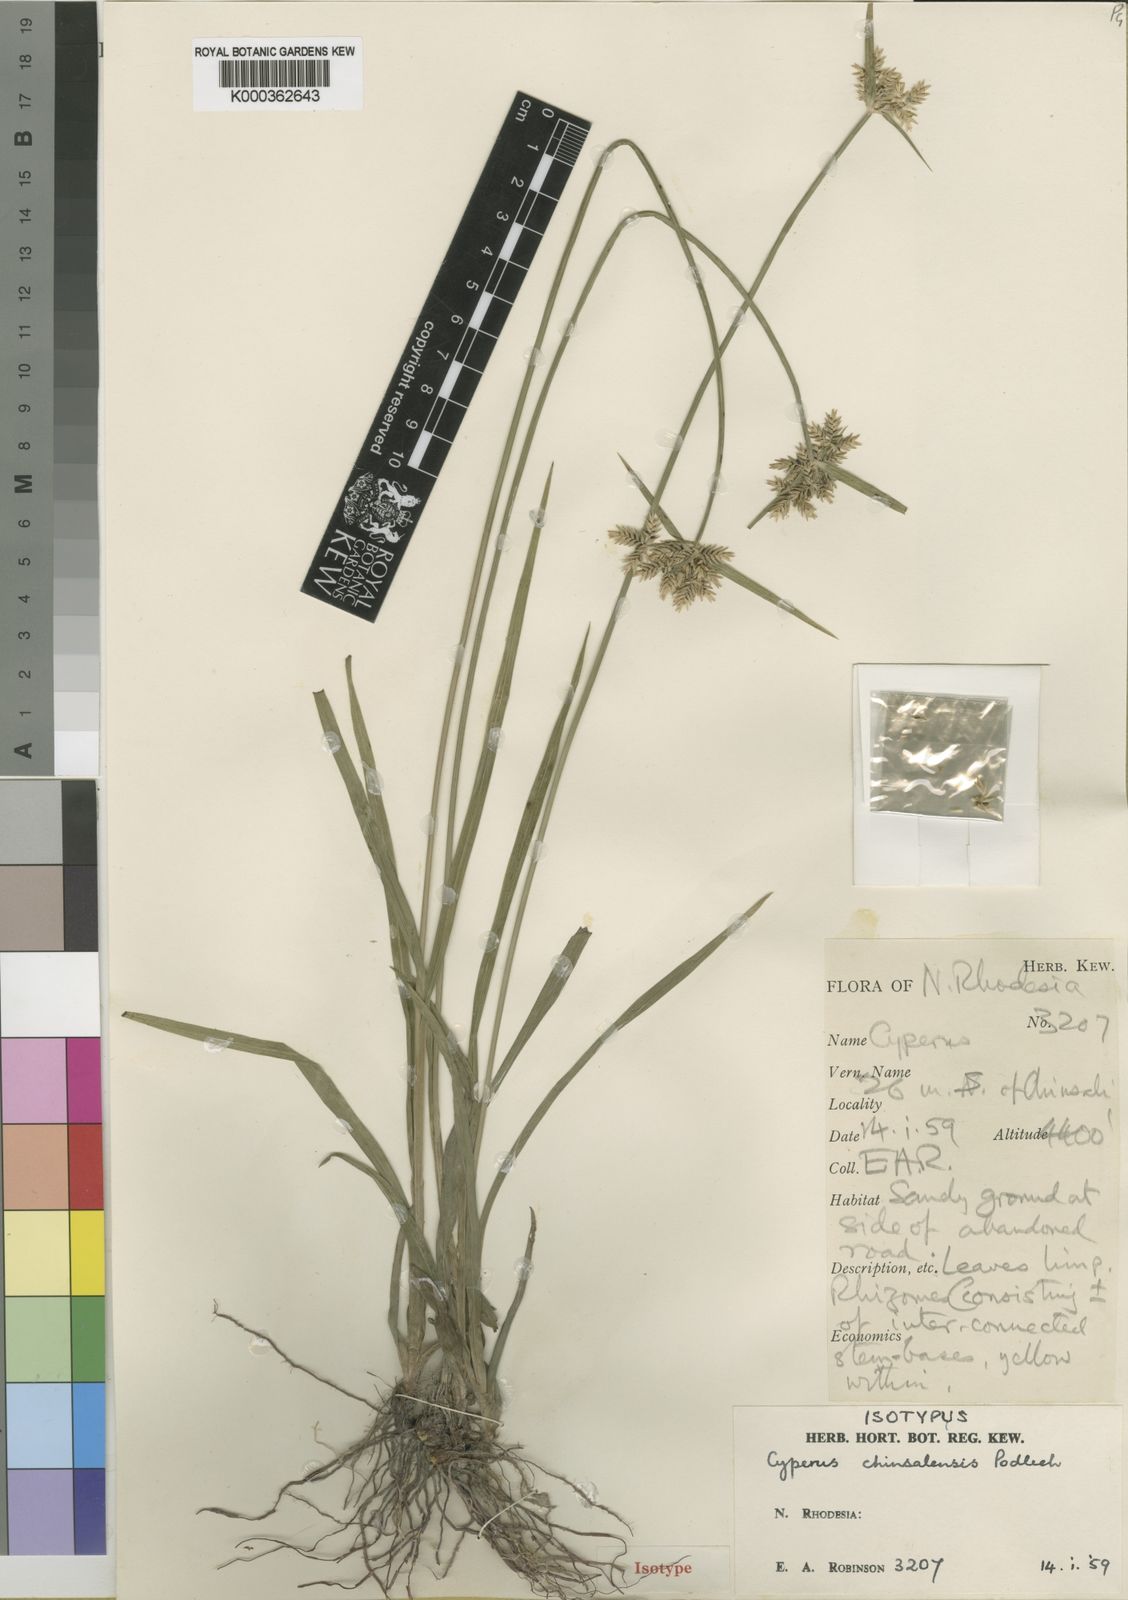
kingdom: Plantae
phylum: Tracheophyta
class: Liliopsida
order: Poales
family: Cyperaceae
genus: Cyperus
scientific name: Cyperus chinsalensis
